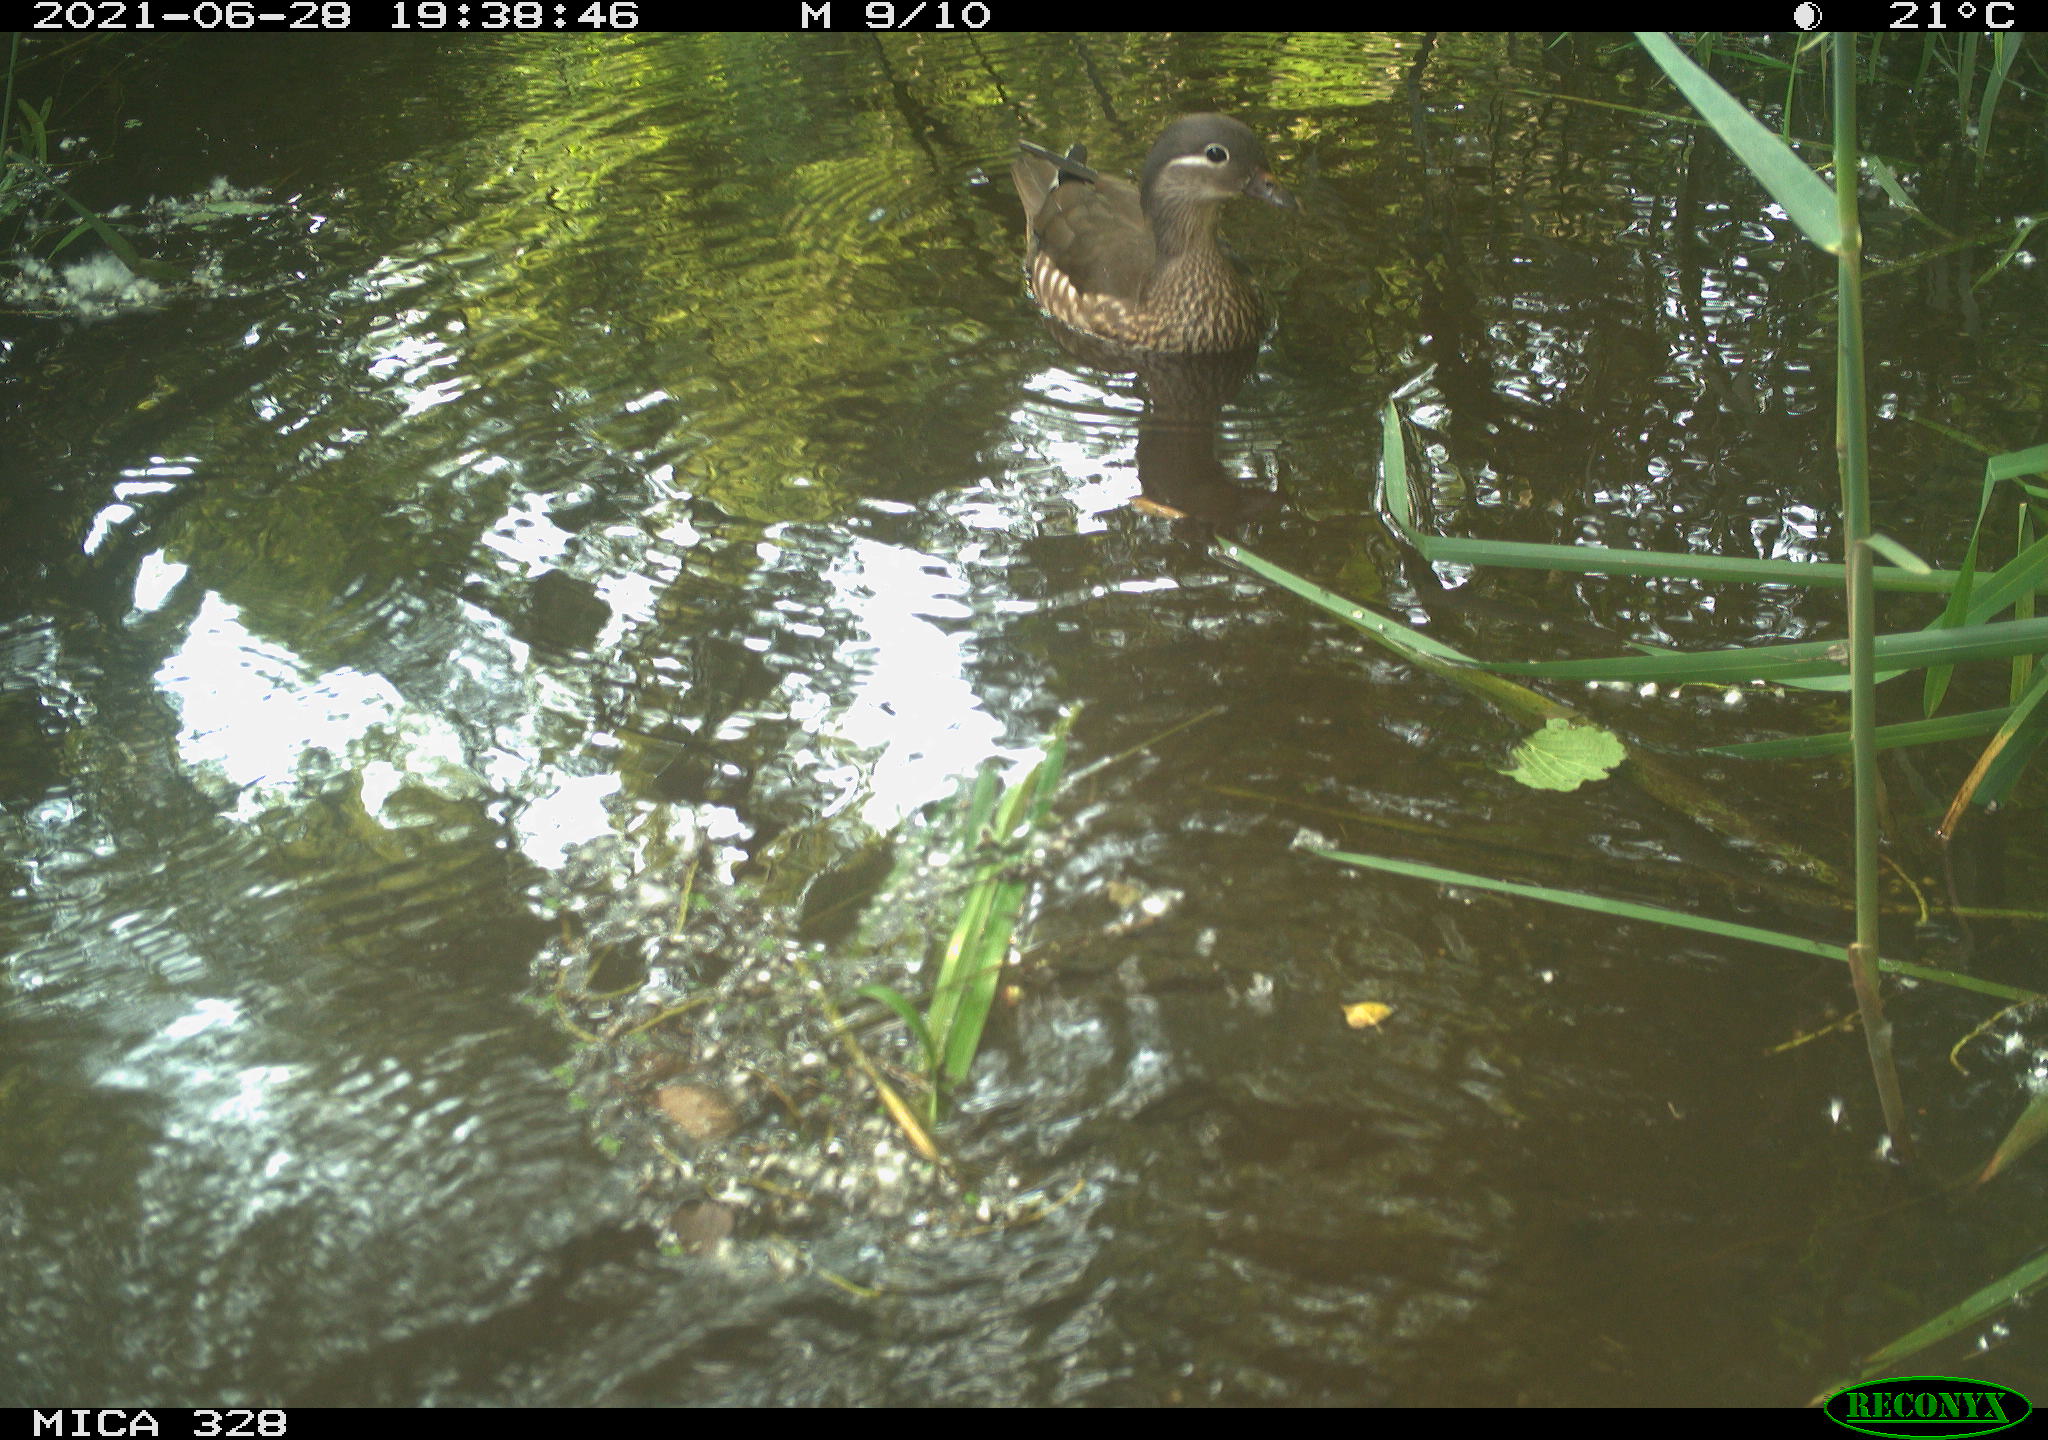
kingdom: Animalia
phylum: Chordata
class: Aves
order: Anseriformes
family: Anatidae
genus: Aix
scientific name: Aix galericulata
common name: Mandarin duck
